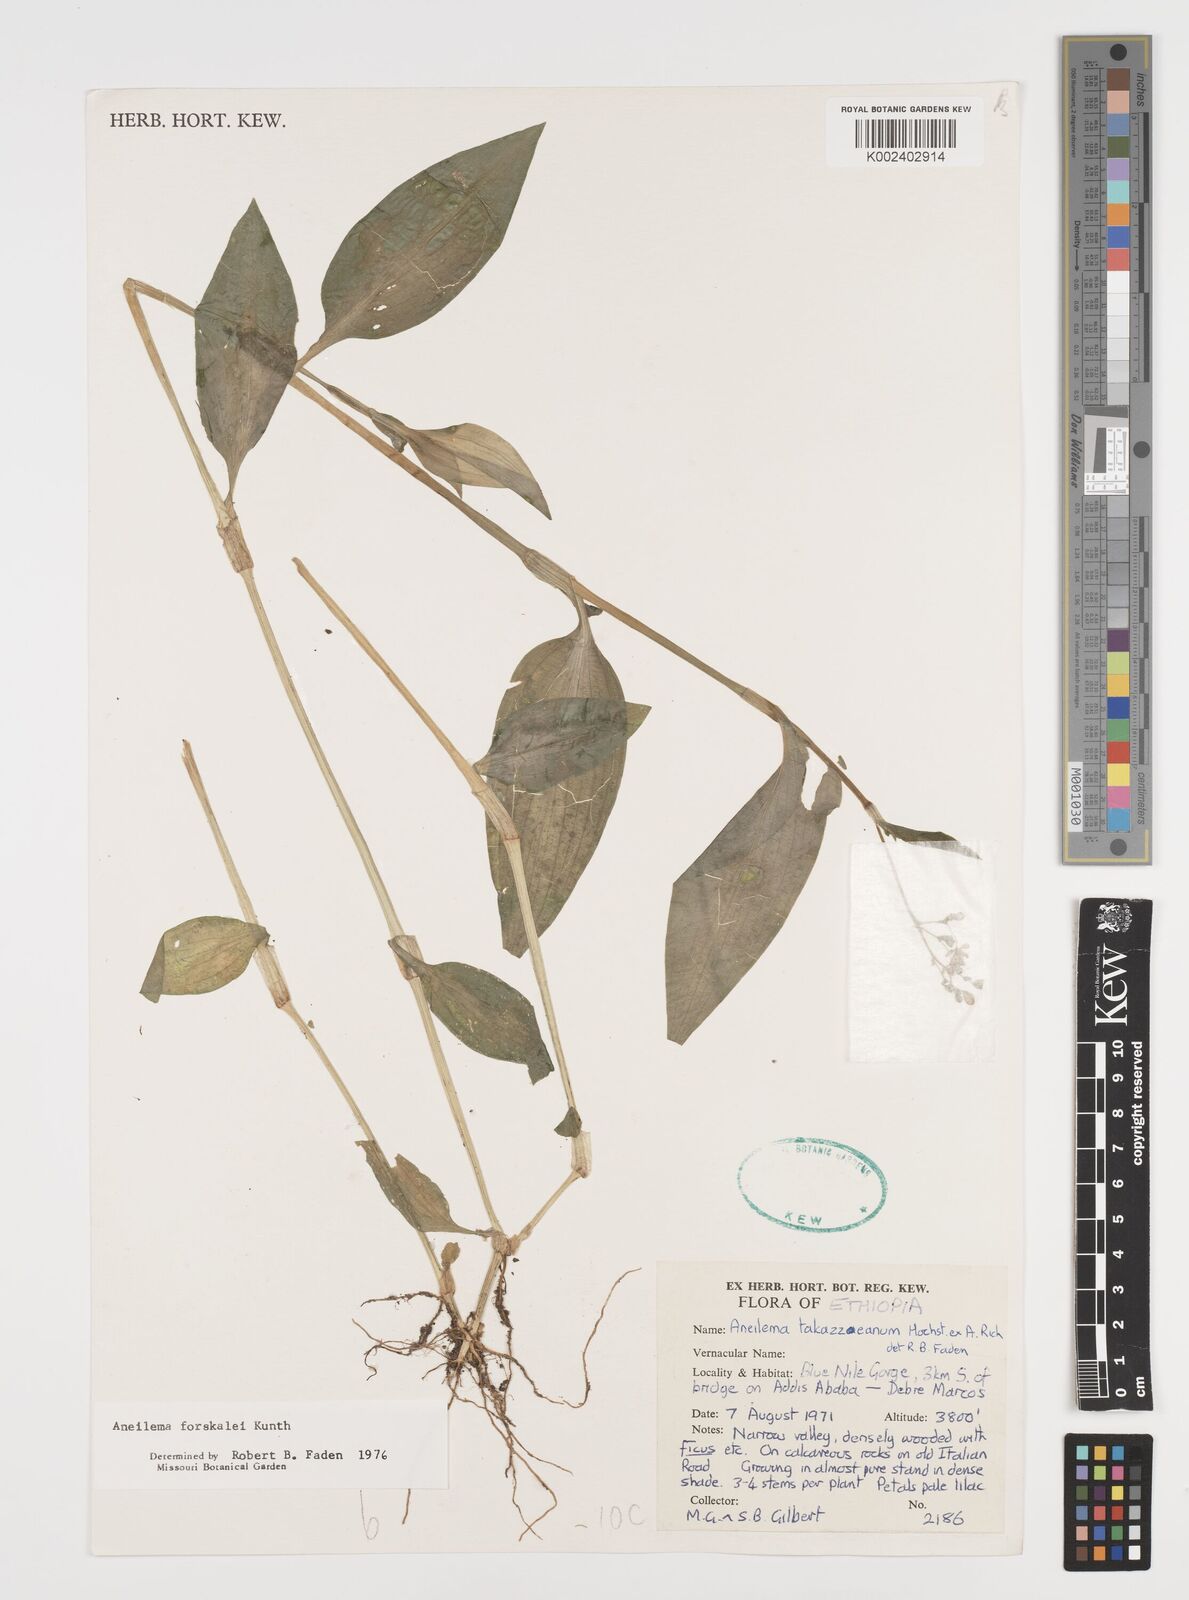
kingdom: Plantae
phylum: Tracheophyta
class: Liliopsida
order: Commelinales
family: Commelinaceae
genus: Aneilema
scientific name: Aneilema forskalii
